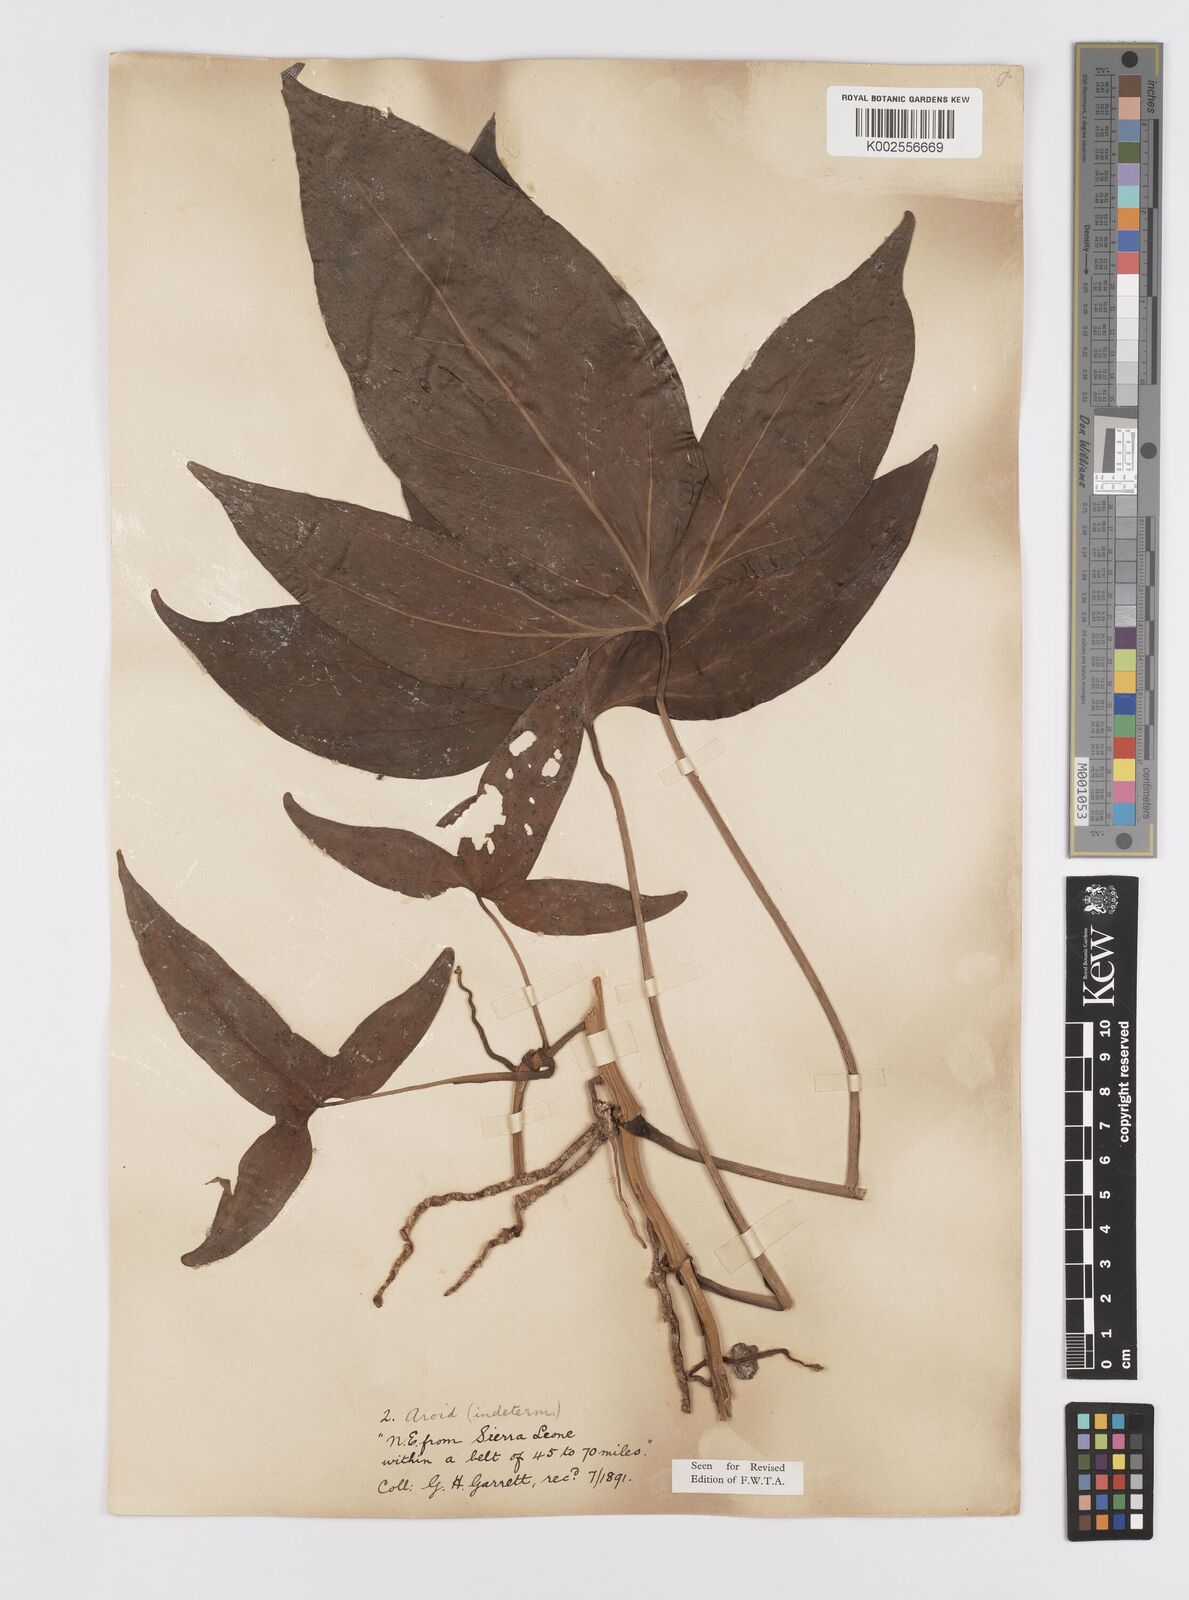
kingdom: Plantae
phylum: Tracheophyta
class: Liliopsida
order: Alismatales
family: Araceae
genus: Cercestis
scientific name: Cercestis afzelii
